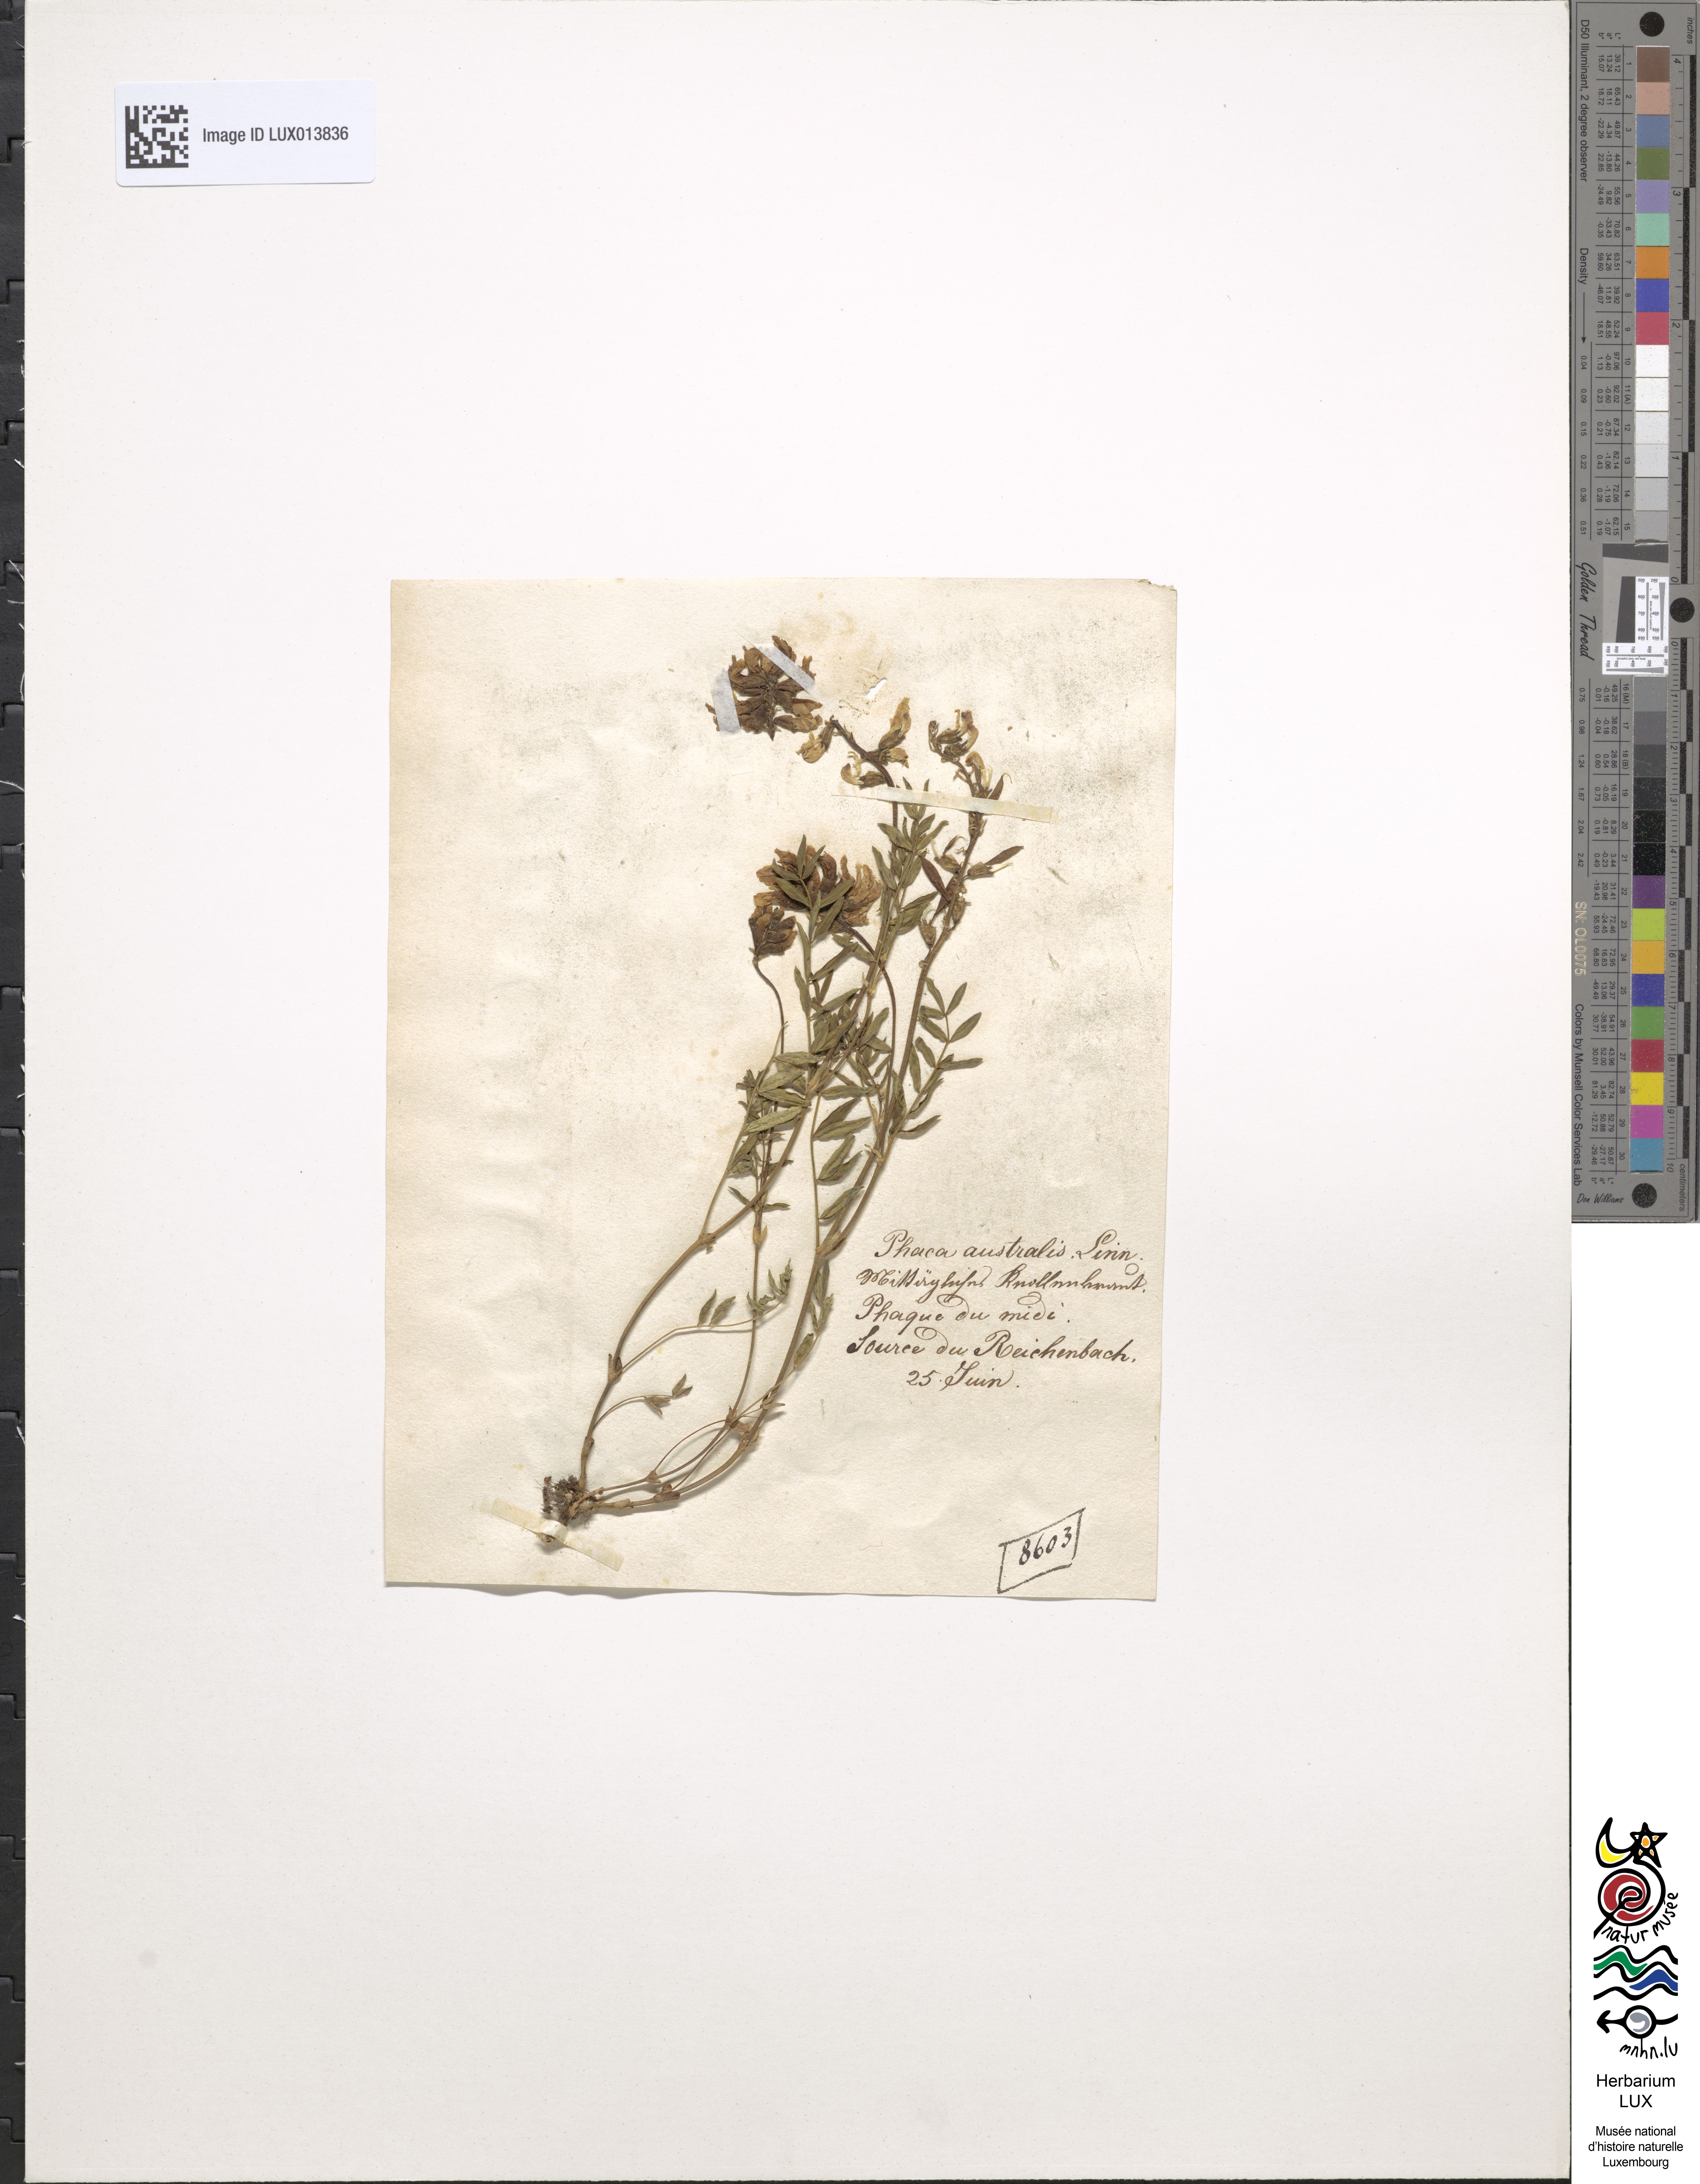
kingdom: Plantae
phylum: Tracheophyta
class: Magnoliopsida
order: Fabales
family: Fabaceae
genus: Astragalus
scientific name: Astragalus australis
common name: Indian milk-vetch
